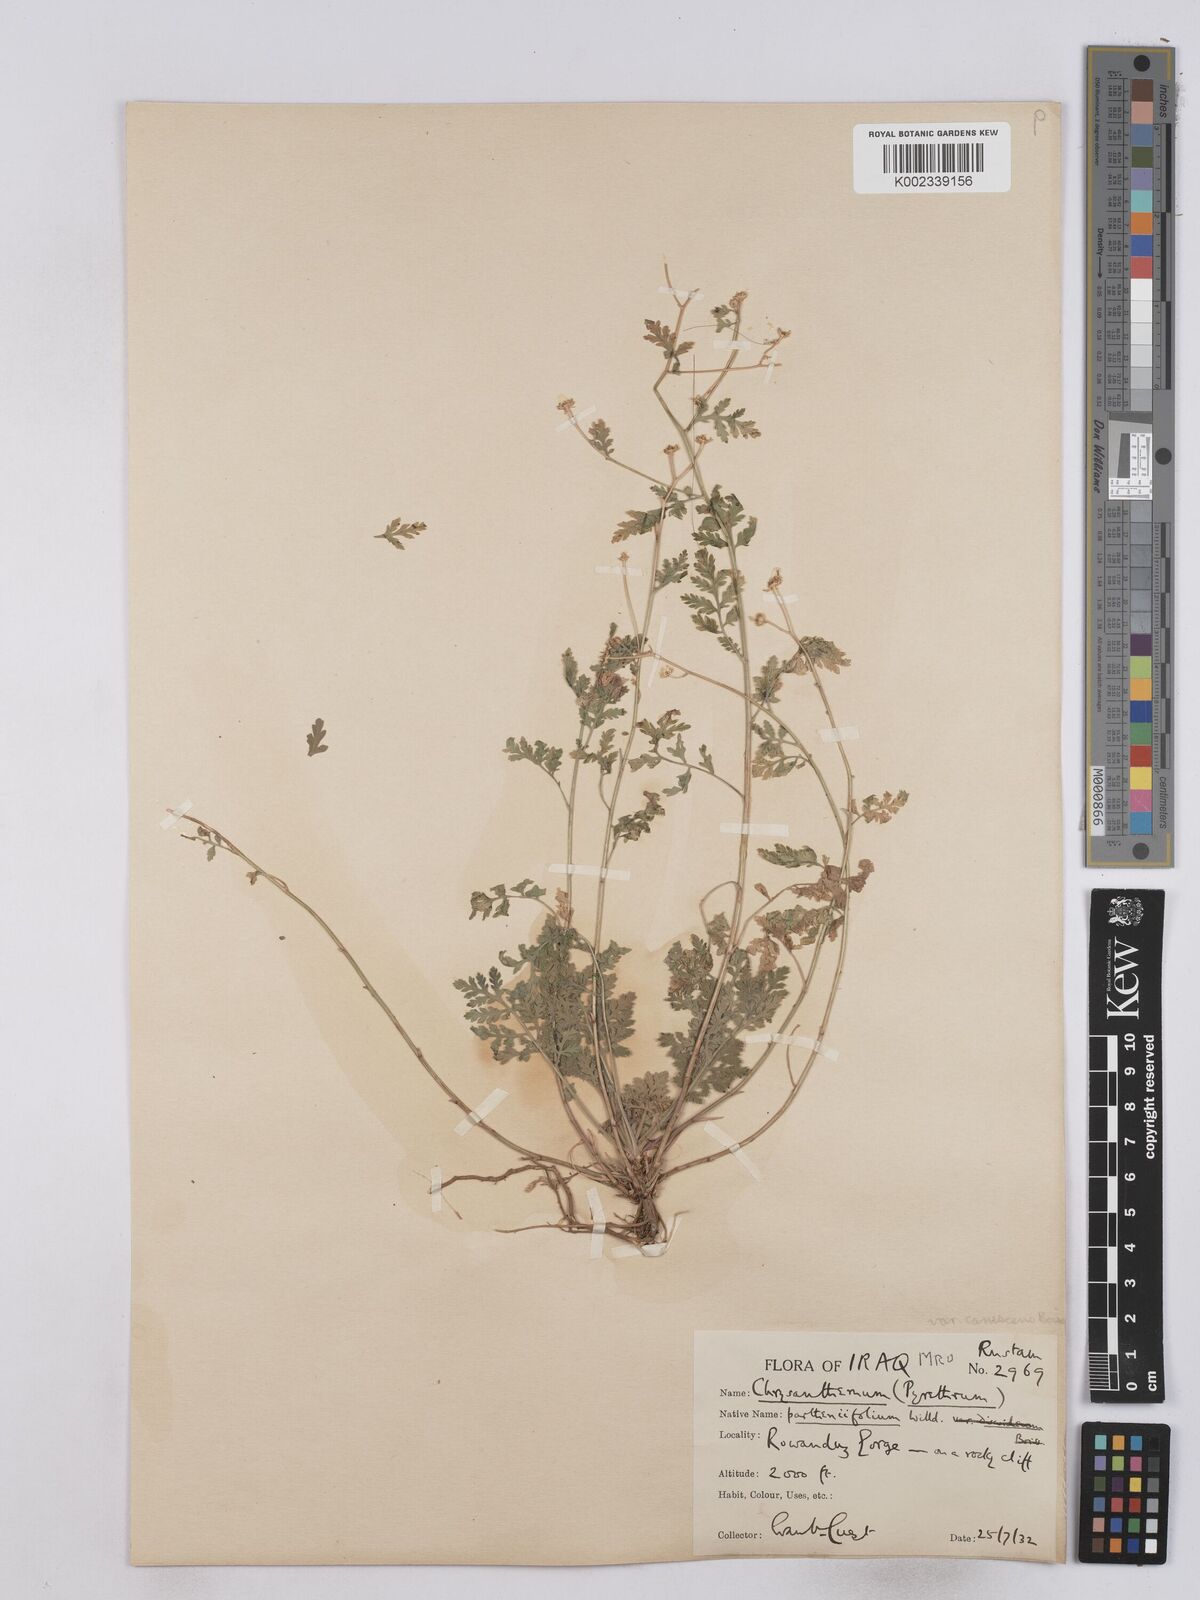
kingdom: Plantae
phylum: Tracheophyta
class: Magnoliopsida
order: Asterales
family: Asteraceae
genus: Tanacetum
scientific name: Tanacetum partheniifolium
